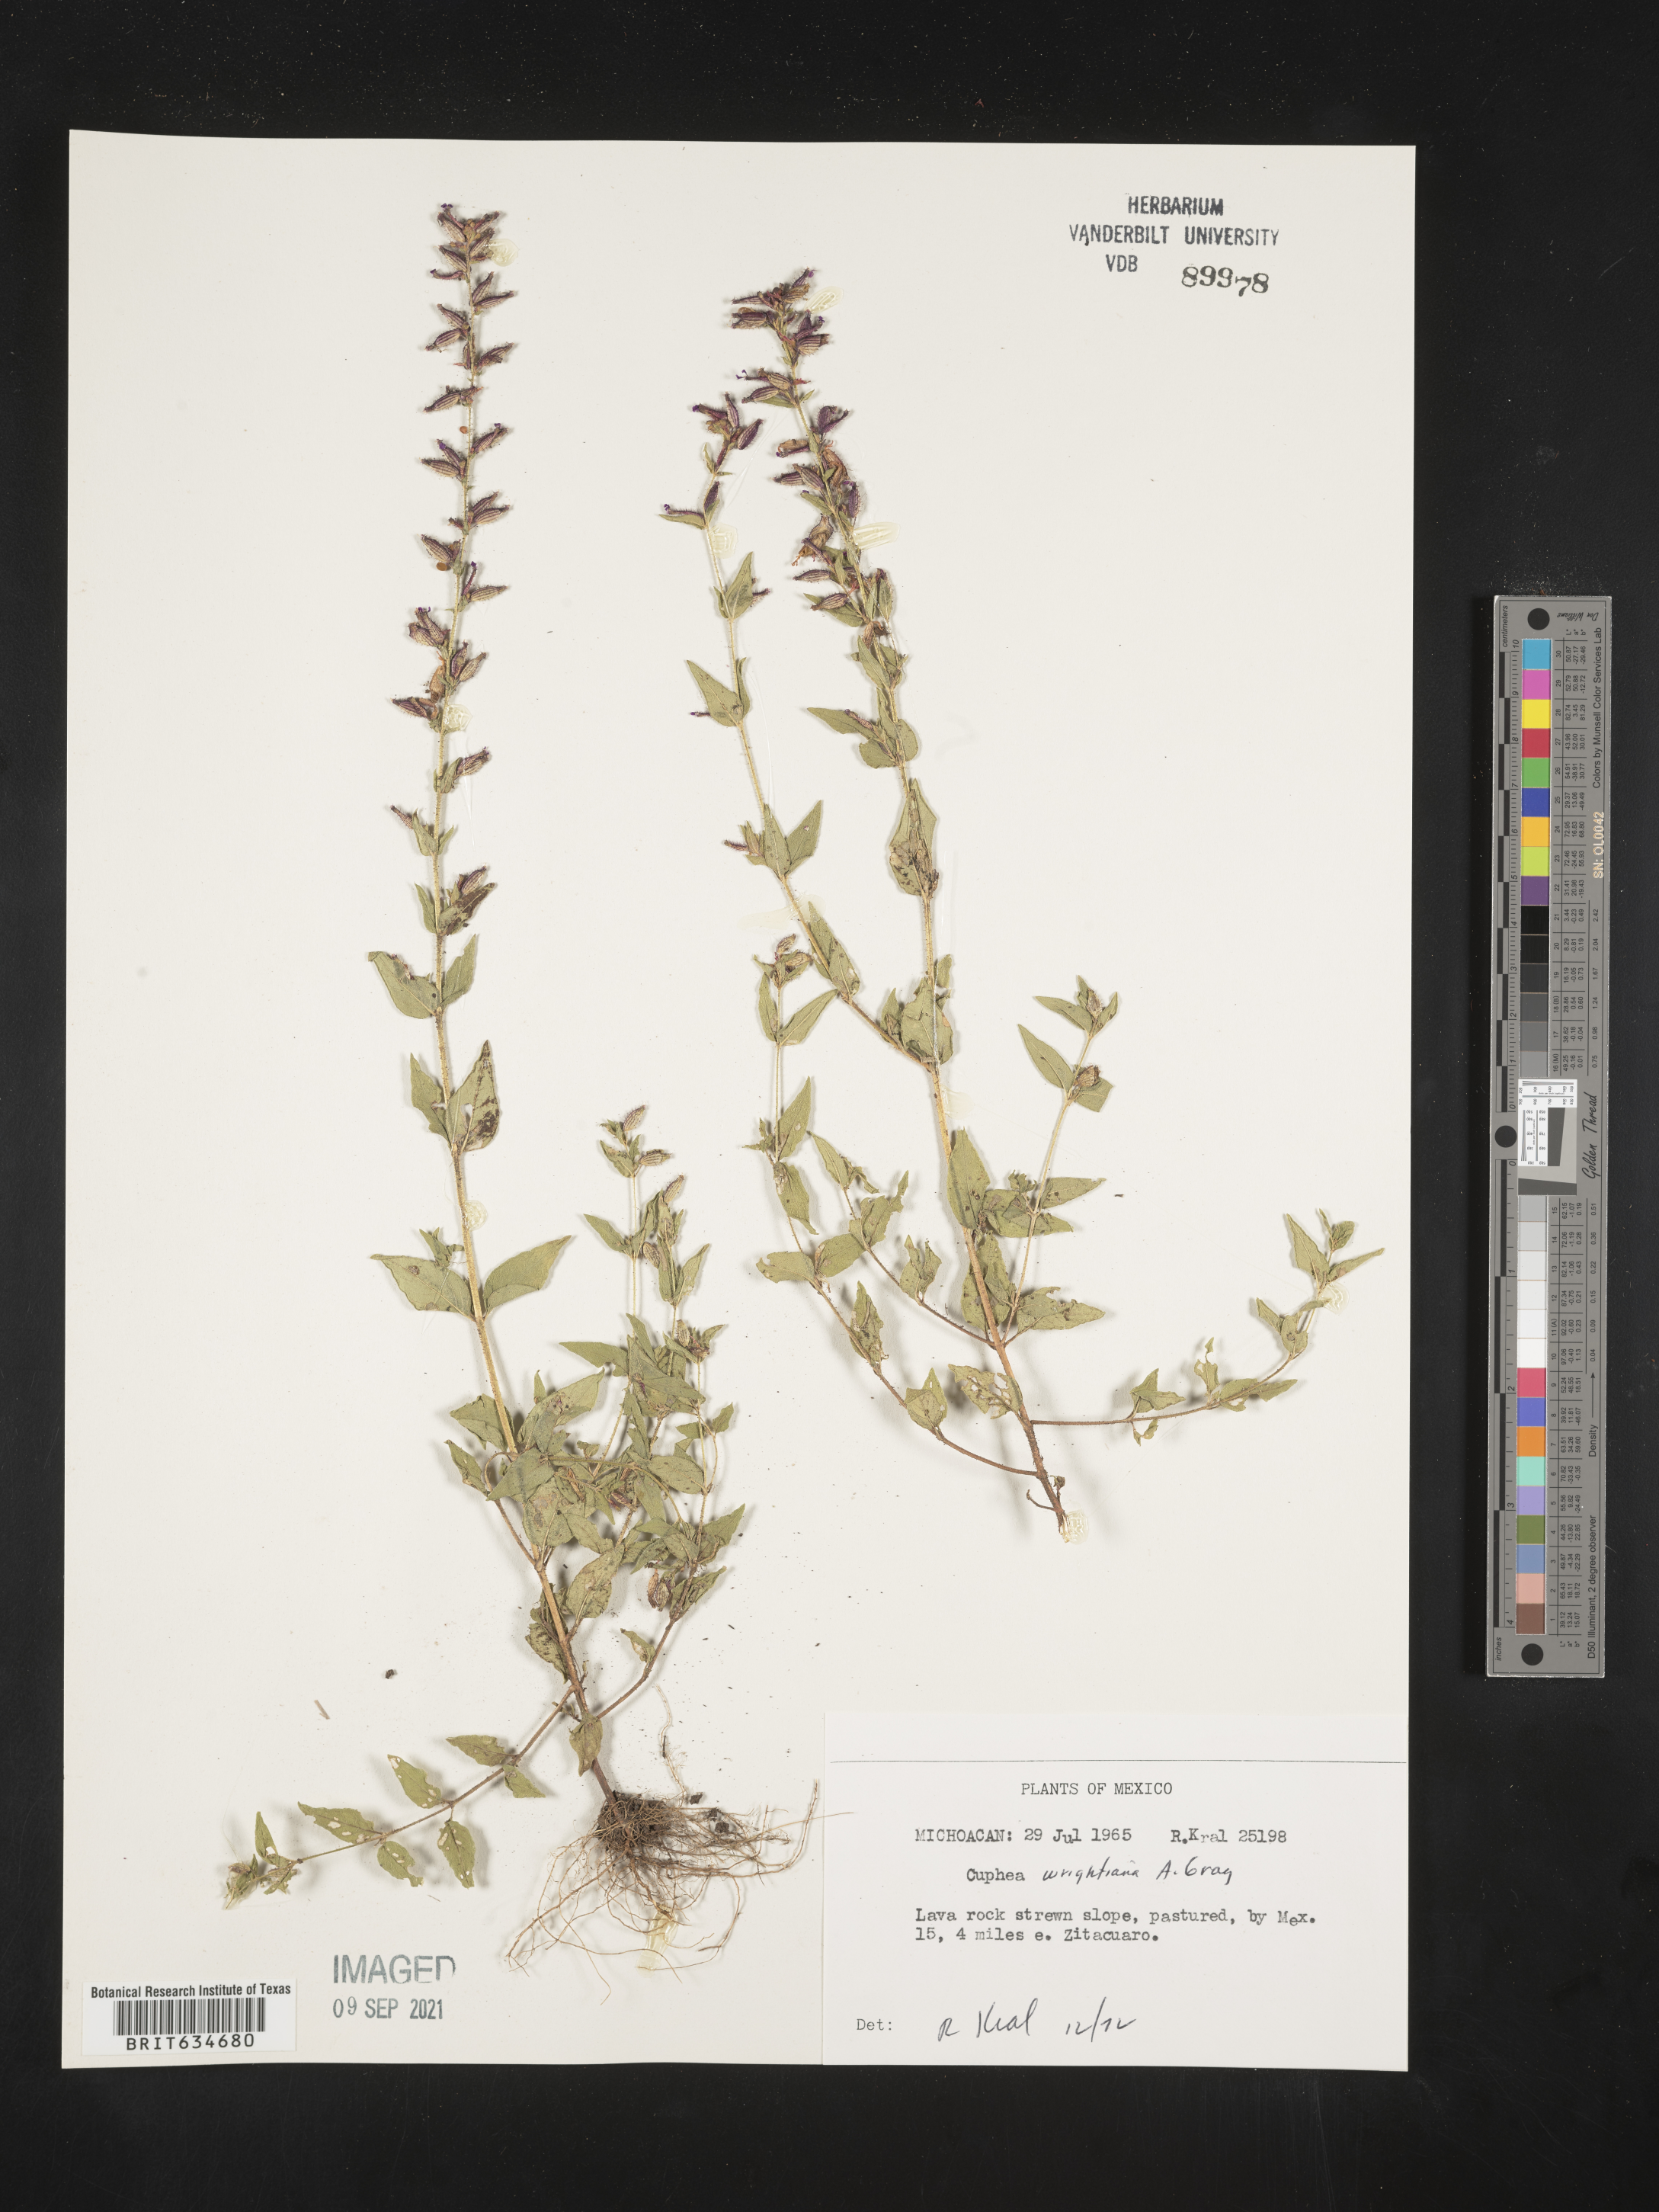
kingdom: Plantae
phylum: Tracheophyta
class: Magnoliopsida
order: Myrtales
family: Lythraceae
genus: Cuphea
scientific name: Cuphea
